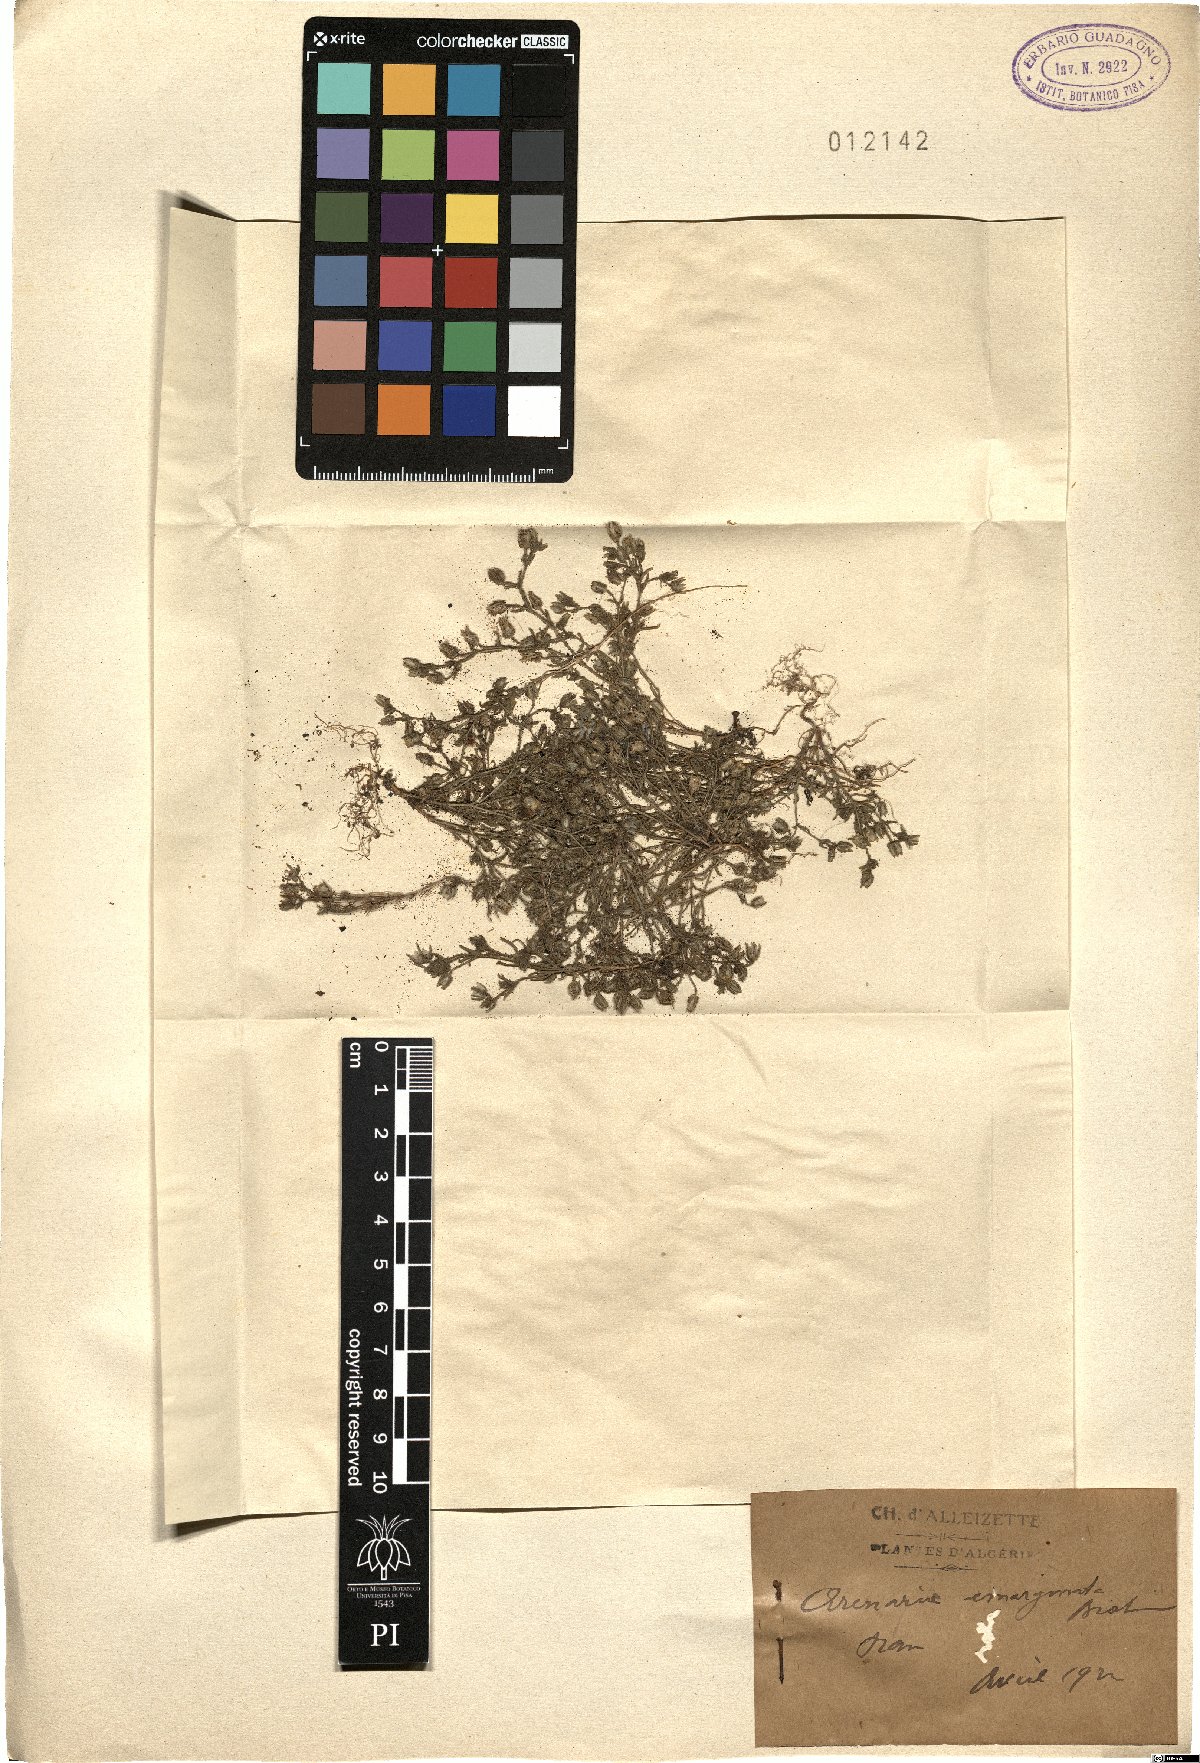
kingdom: Plantae
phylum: Tracheophyta
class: Magnoliopsida
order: Caryophyllales
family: Caryophyllaceae
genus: Arenaria
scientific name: Arenaria emarginata
